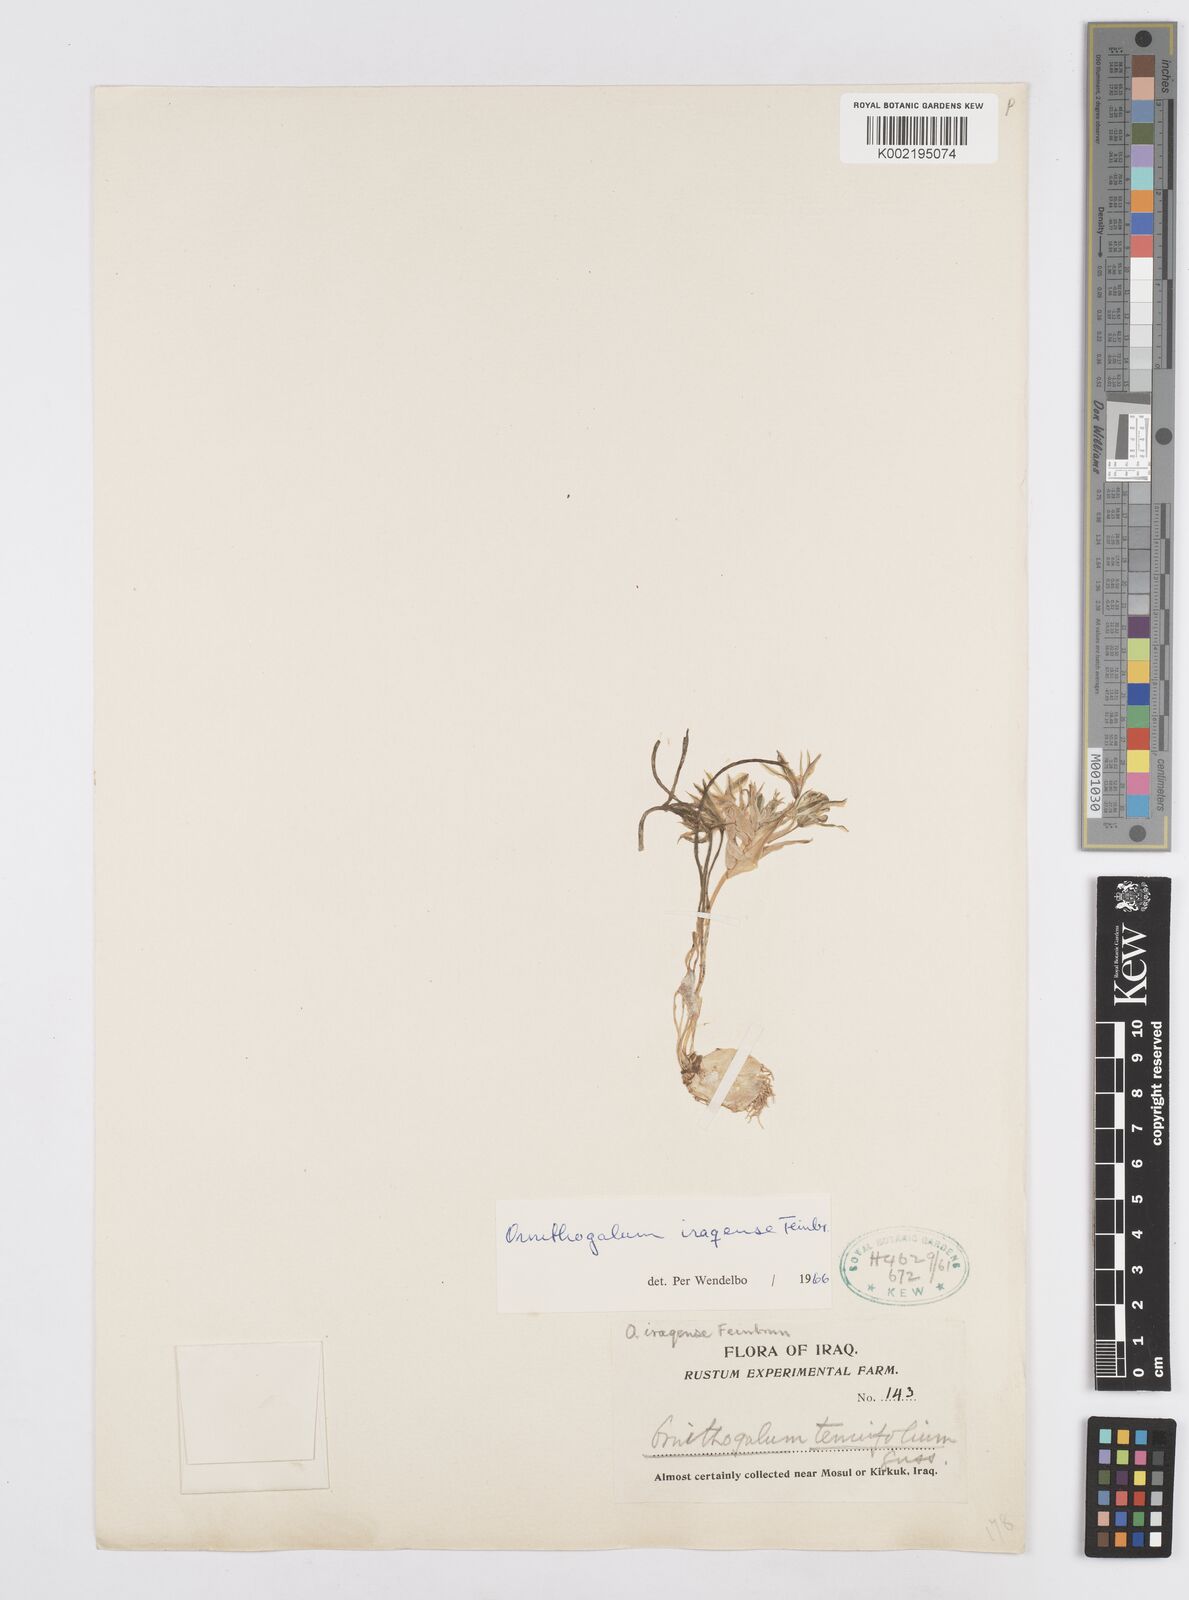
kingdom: Plantae
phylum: Tracheophyta
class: Liliopsida
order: Asparagales
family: Asparagaceae
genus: Ornithogalum
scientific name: Ornithogalum iraqense
